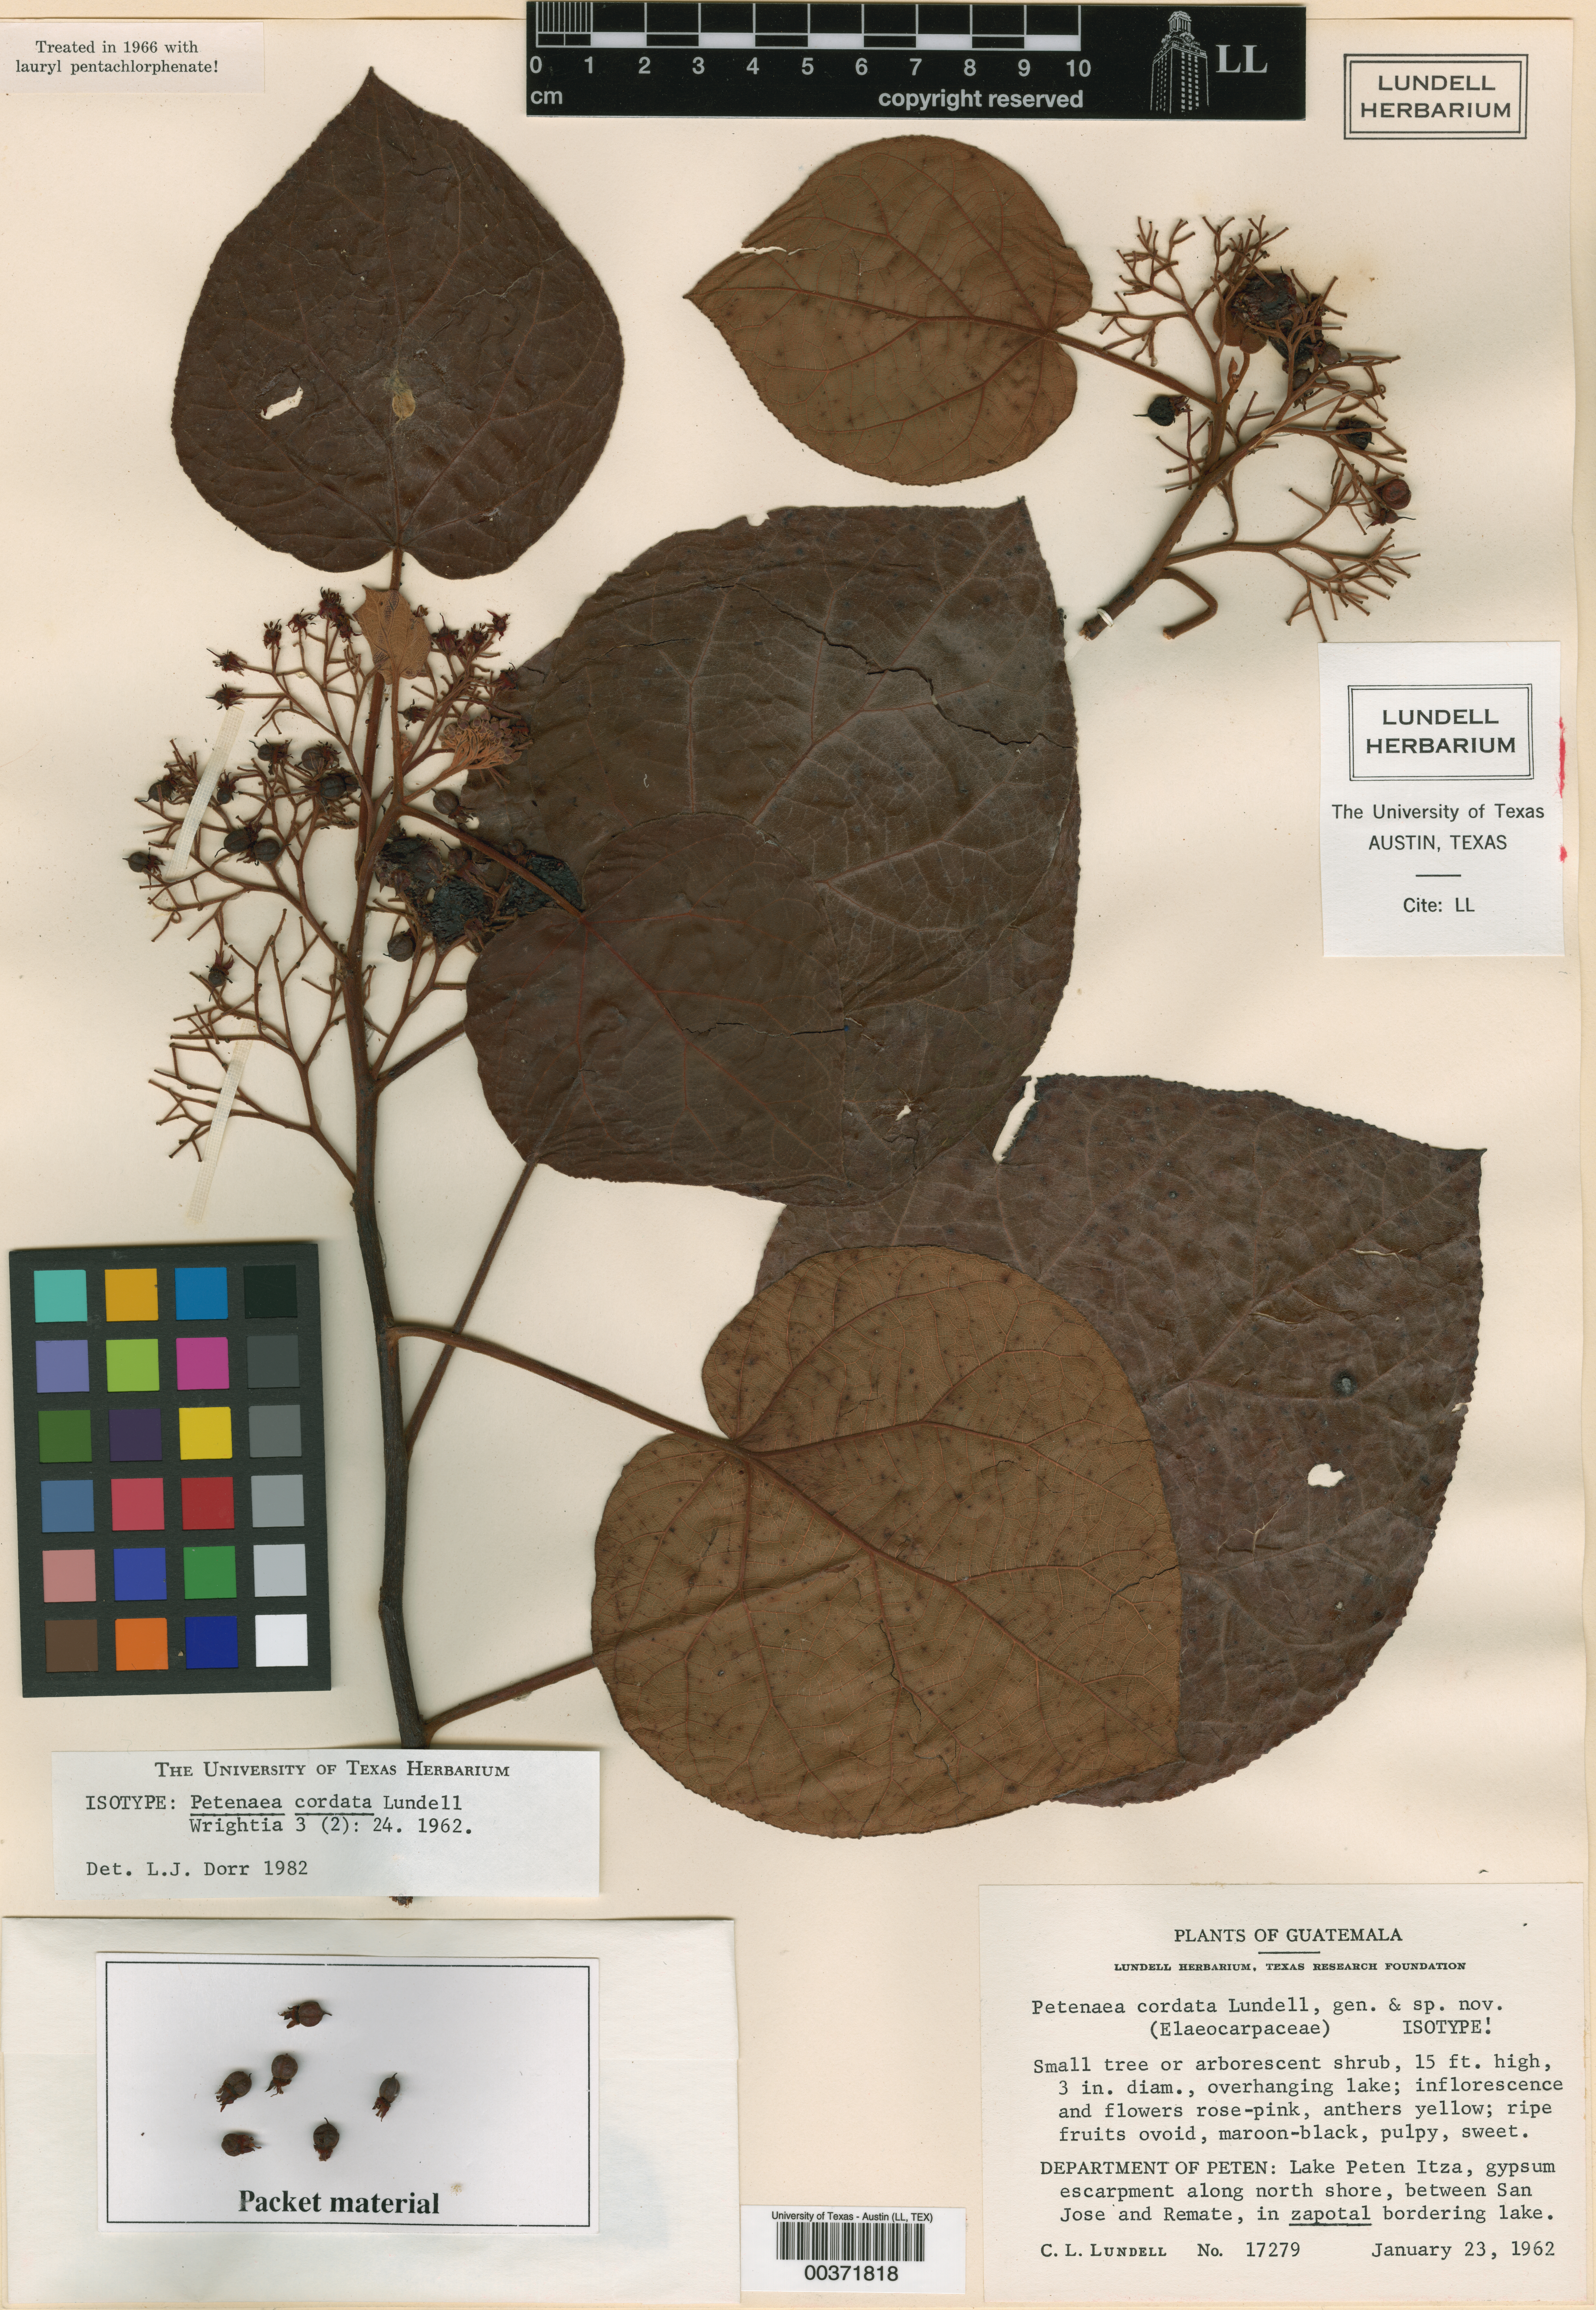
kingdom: Plantae
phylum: Tracheophyta
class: Magnoliopsida
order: Huerteales
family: Petenaeaceae
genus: Petenaea
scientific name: Petenaea cordata
